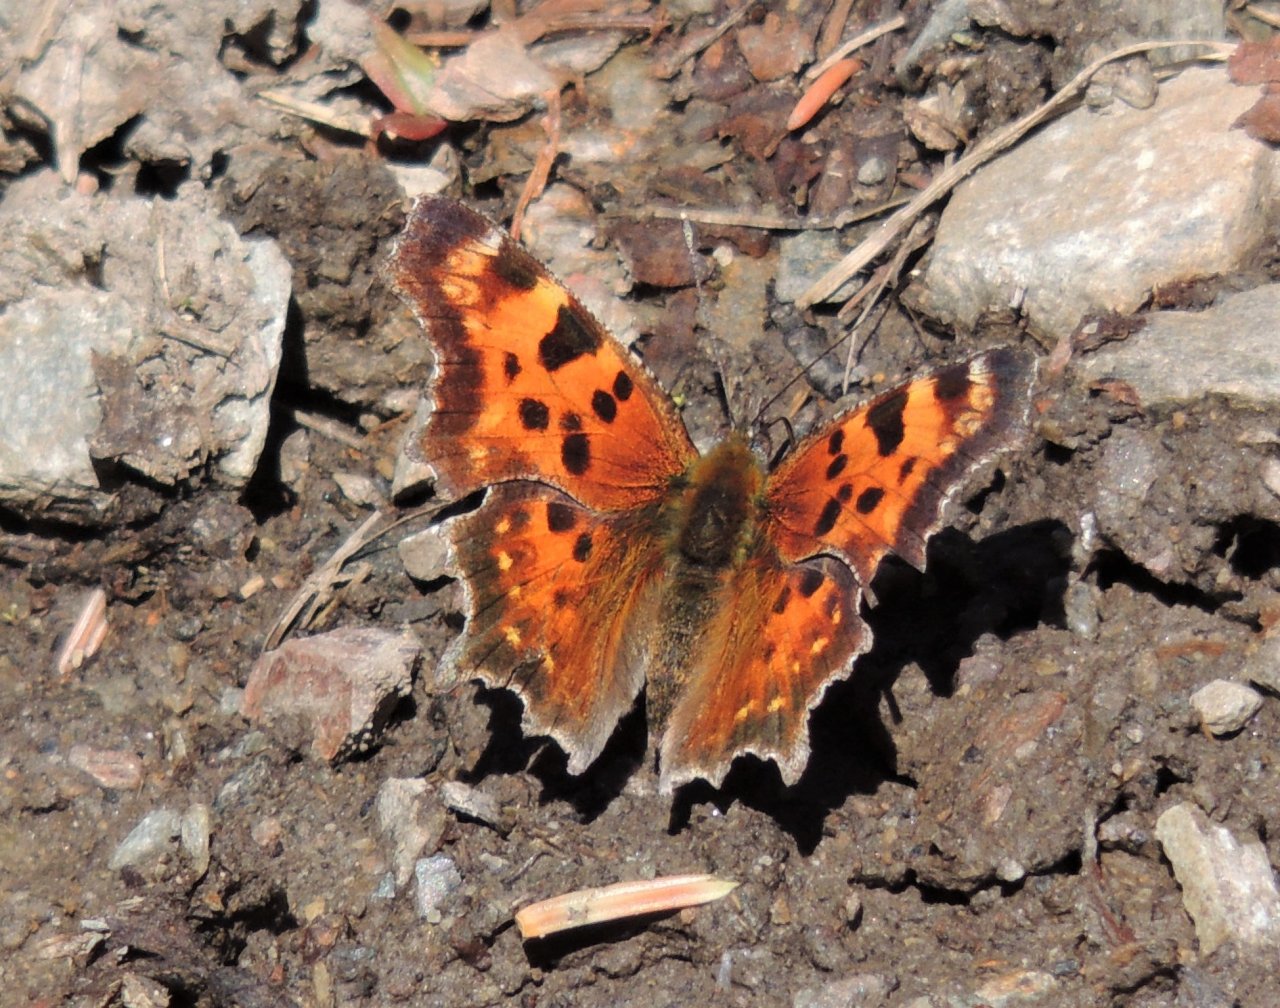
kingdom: Animalia
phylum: Arthropoda
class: Insecta
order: Lepidoptera
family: Nymphalidae
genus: Polygonia
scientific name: Polygonia faunus
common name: Green Comma
